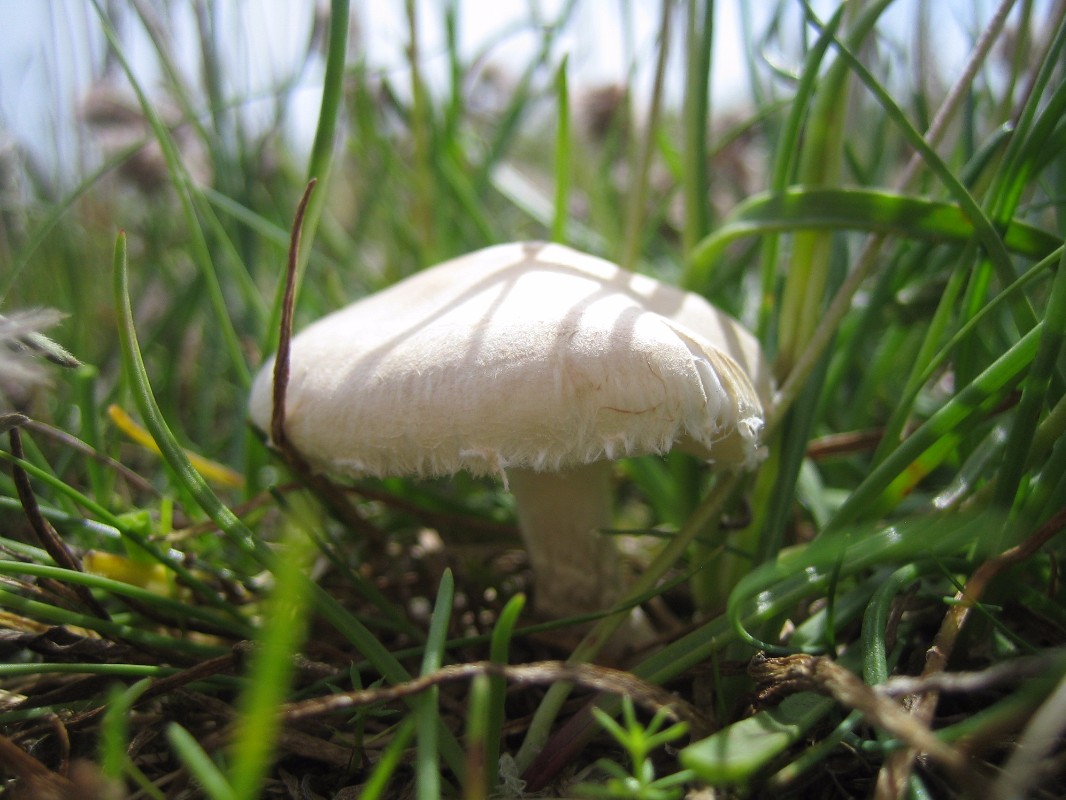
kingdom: Fungi
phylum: Basidiomycota
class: Agaricomycetes
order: Agaricales
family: Agaricaceae
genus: Lepiota
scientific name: Lepiota erminea
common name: hvid parasolhat
